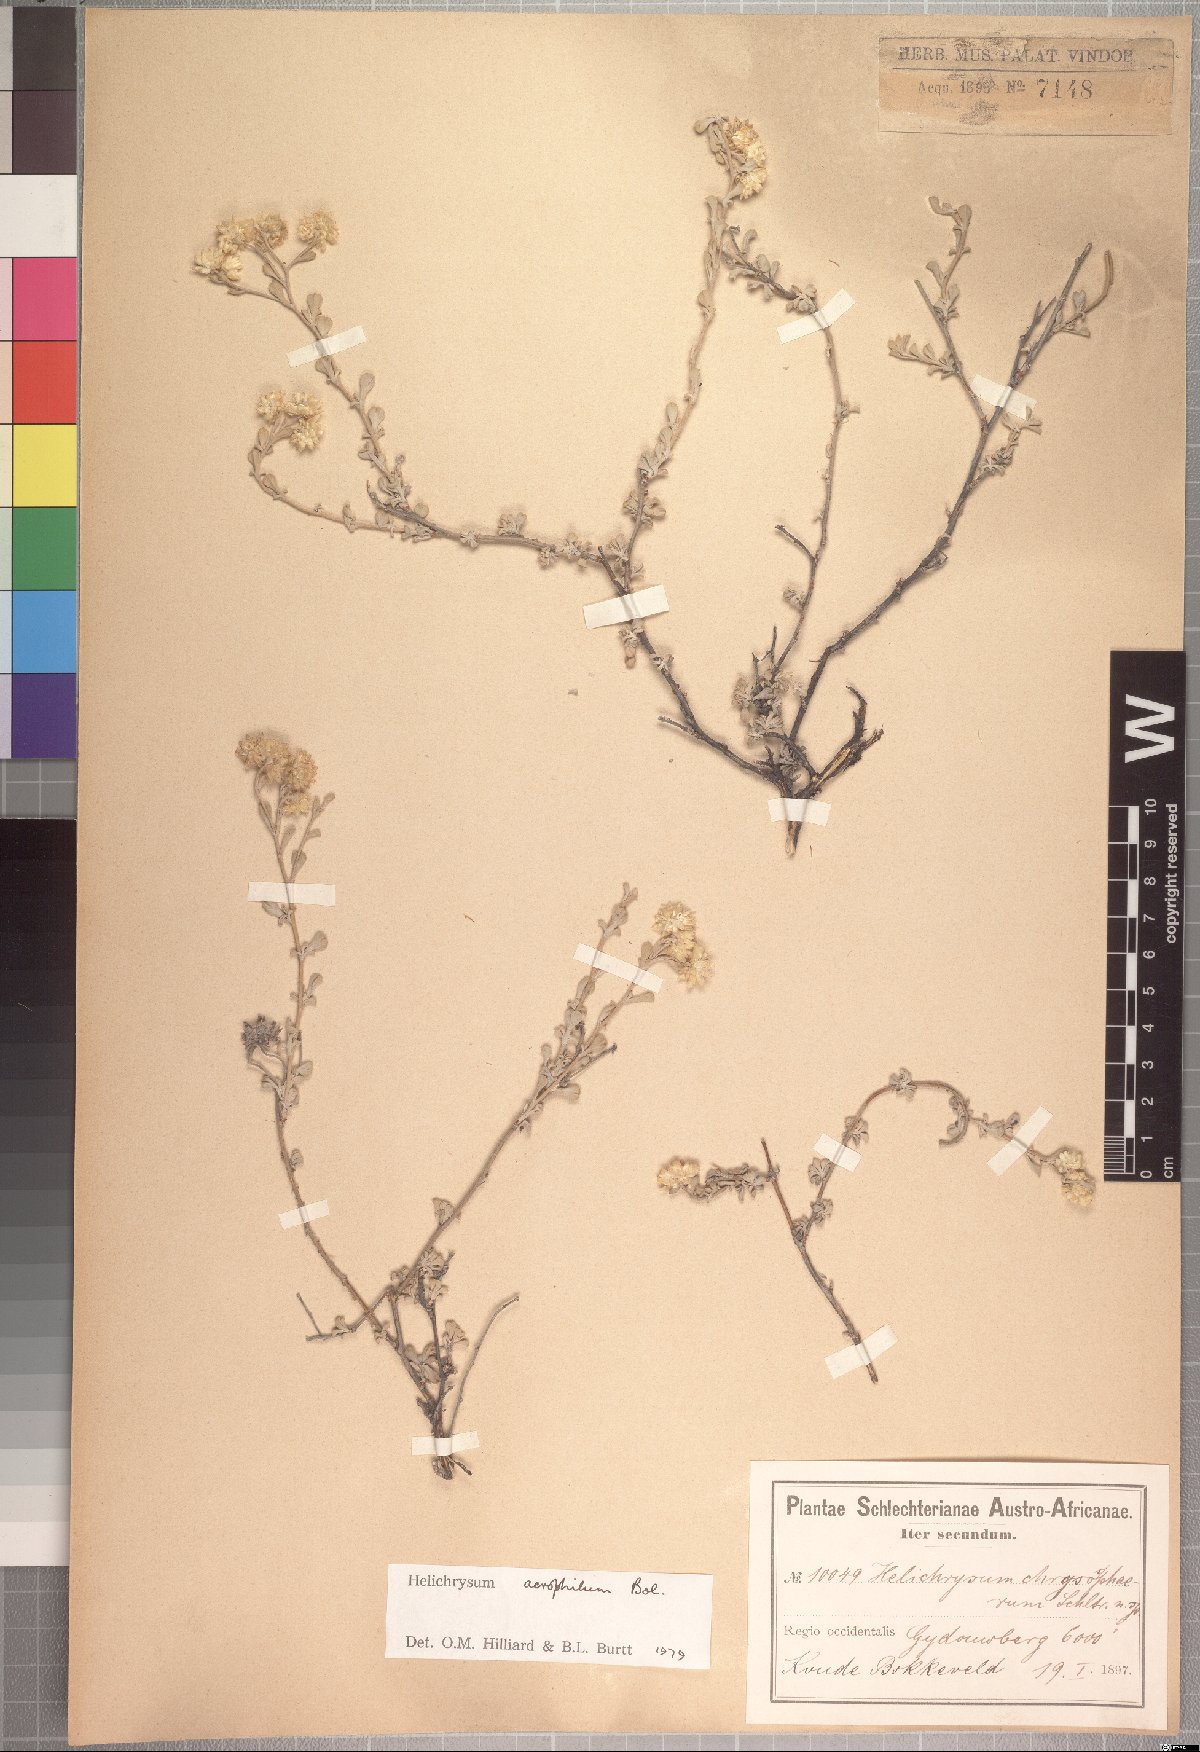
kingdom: Plantae
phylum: Tracheophyta
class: Magnoliopsida
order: Asterales
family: Asteraceae
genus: Helichrysum
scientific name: Helichrysum acrophilum
